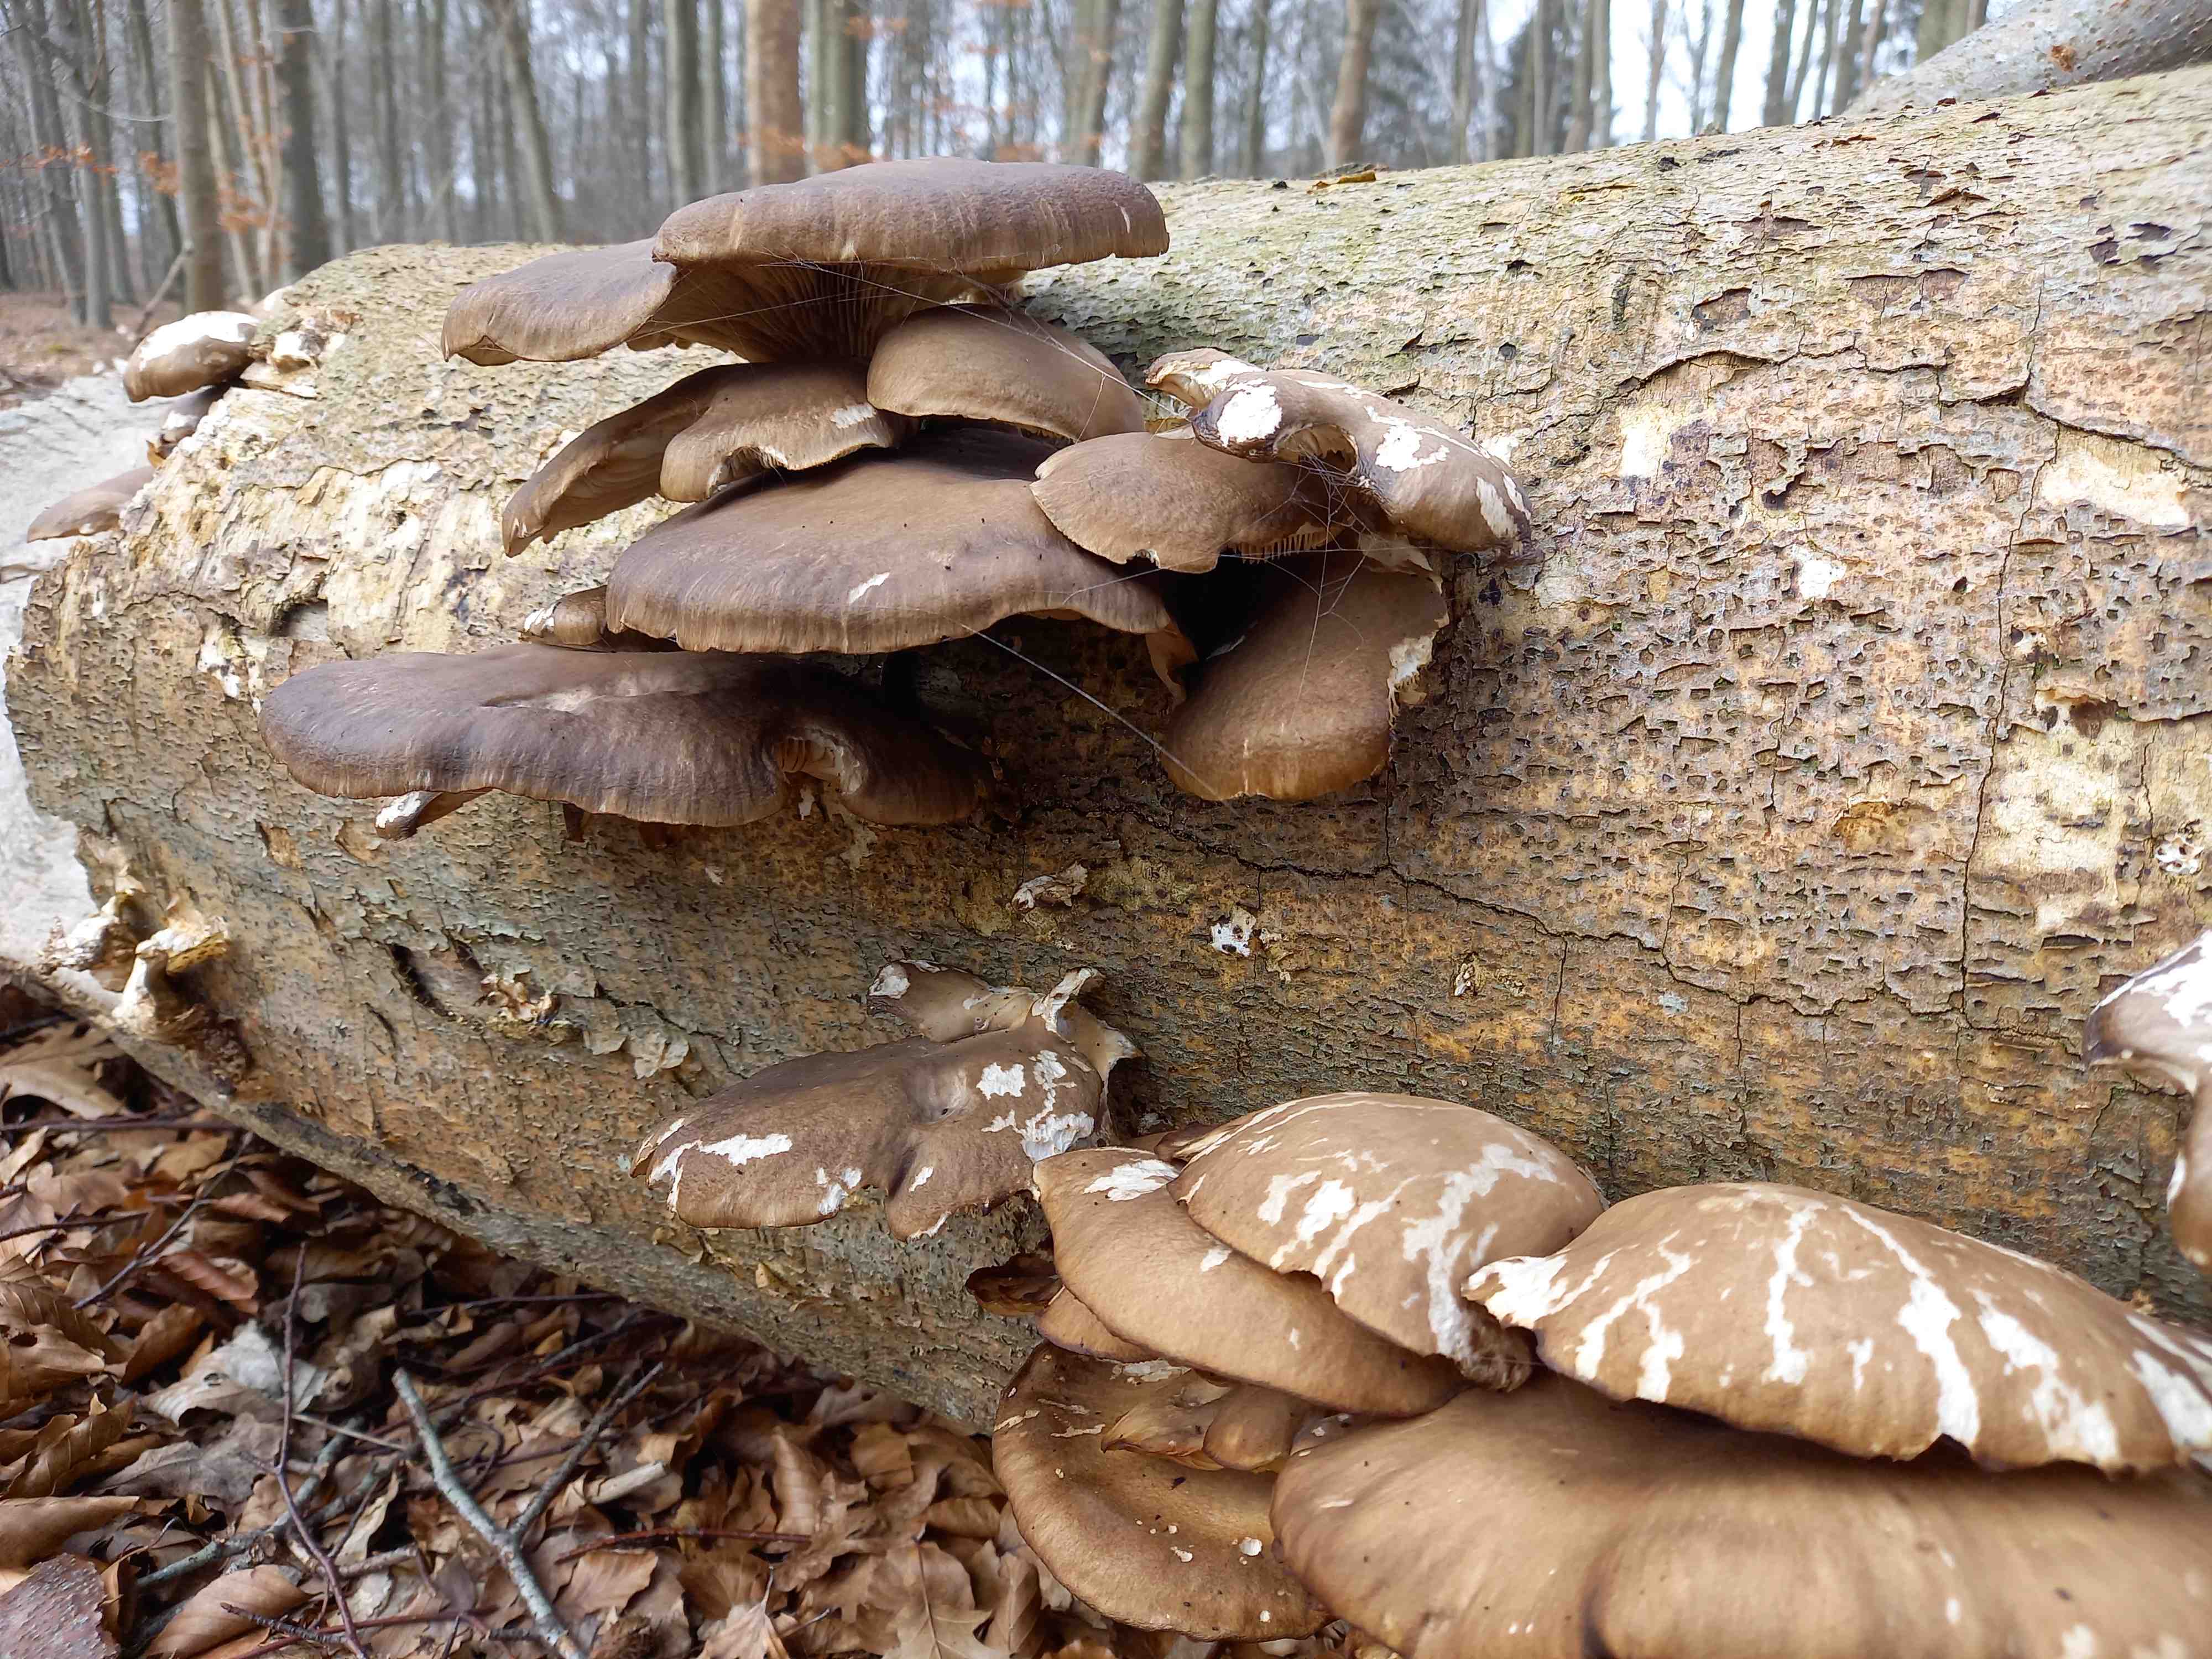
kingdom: Fungi
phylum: Basidiomycota
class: Agaricomycetes
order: Agaricales
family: Pleurotaceae
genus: Pleurotus
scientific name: Pleurotus ostreatus
